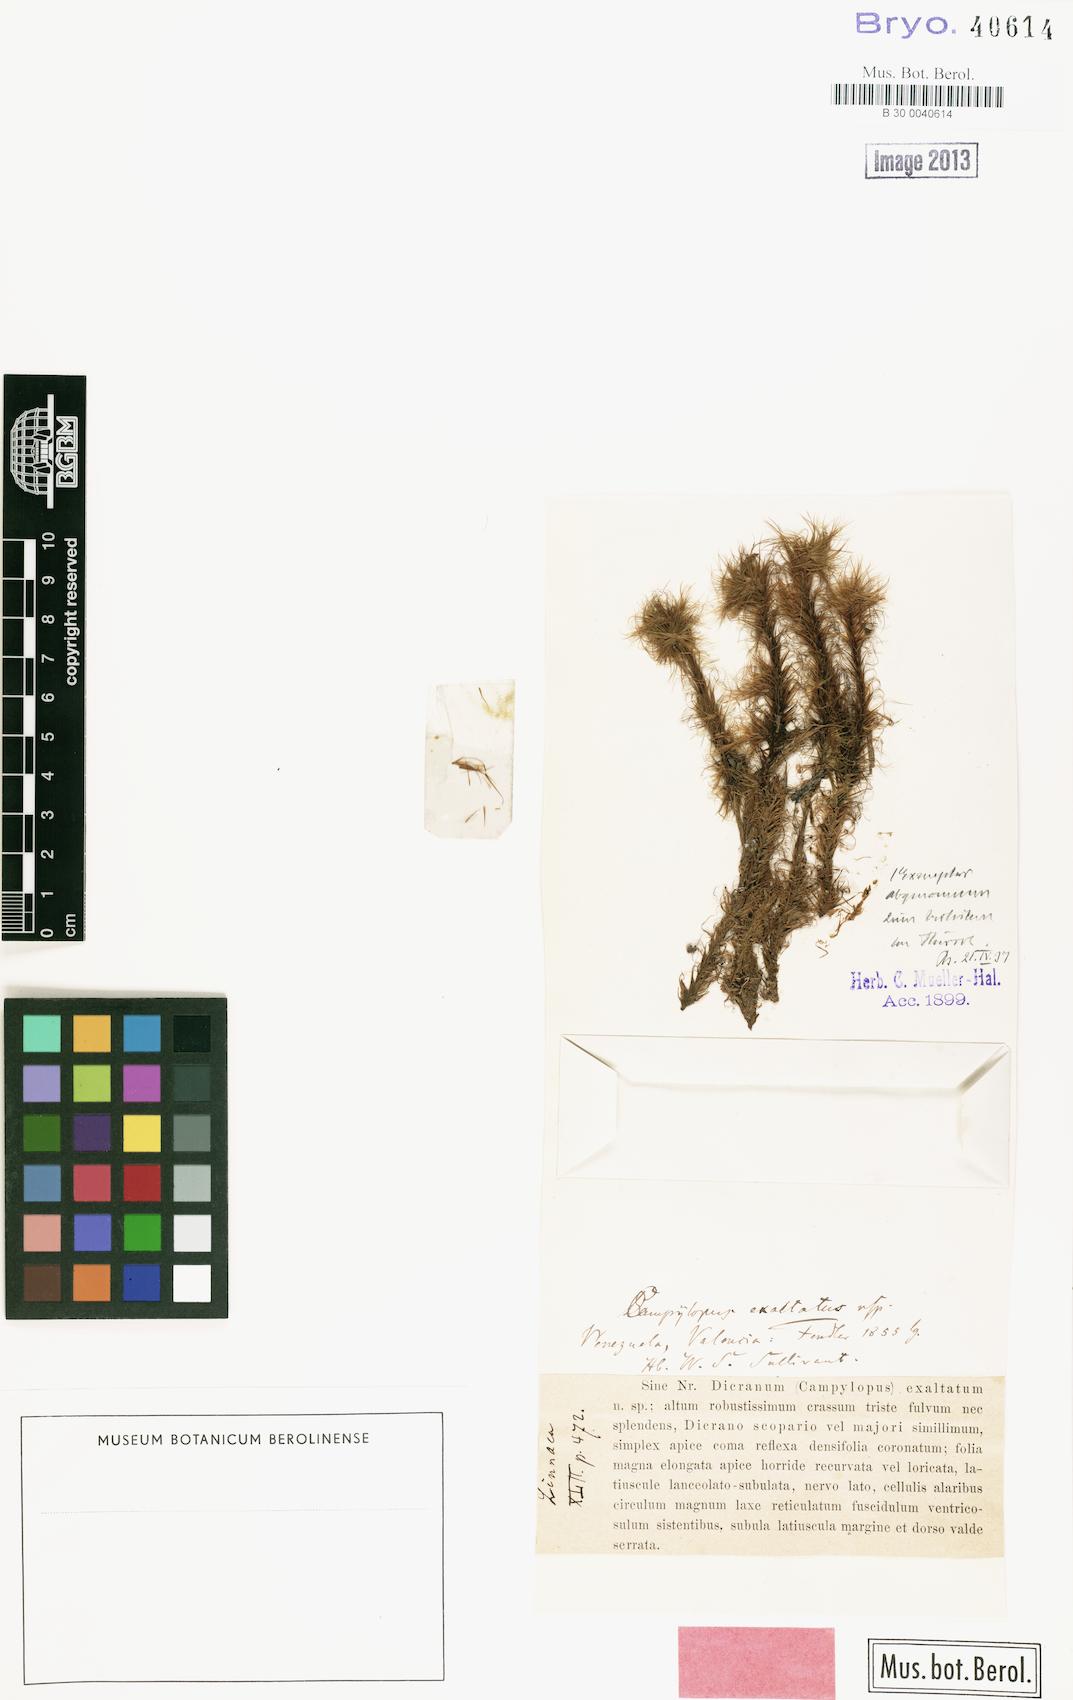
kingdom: Plantae
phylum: Bryophyta
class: Bryopsida
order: Dicranales
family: Leucobryaceae
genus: Campylopus
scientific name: Campylopus lamellinervis
